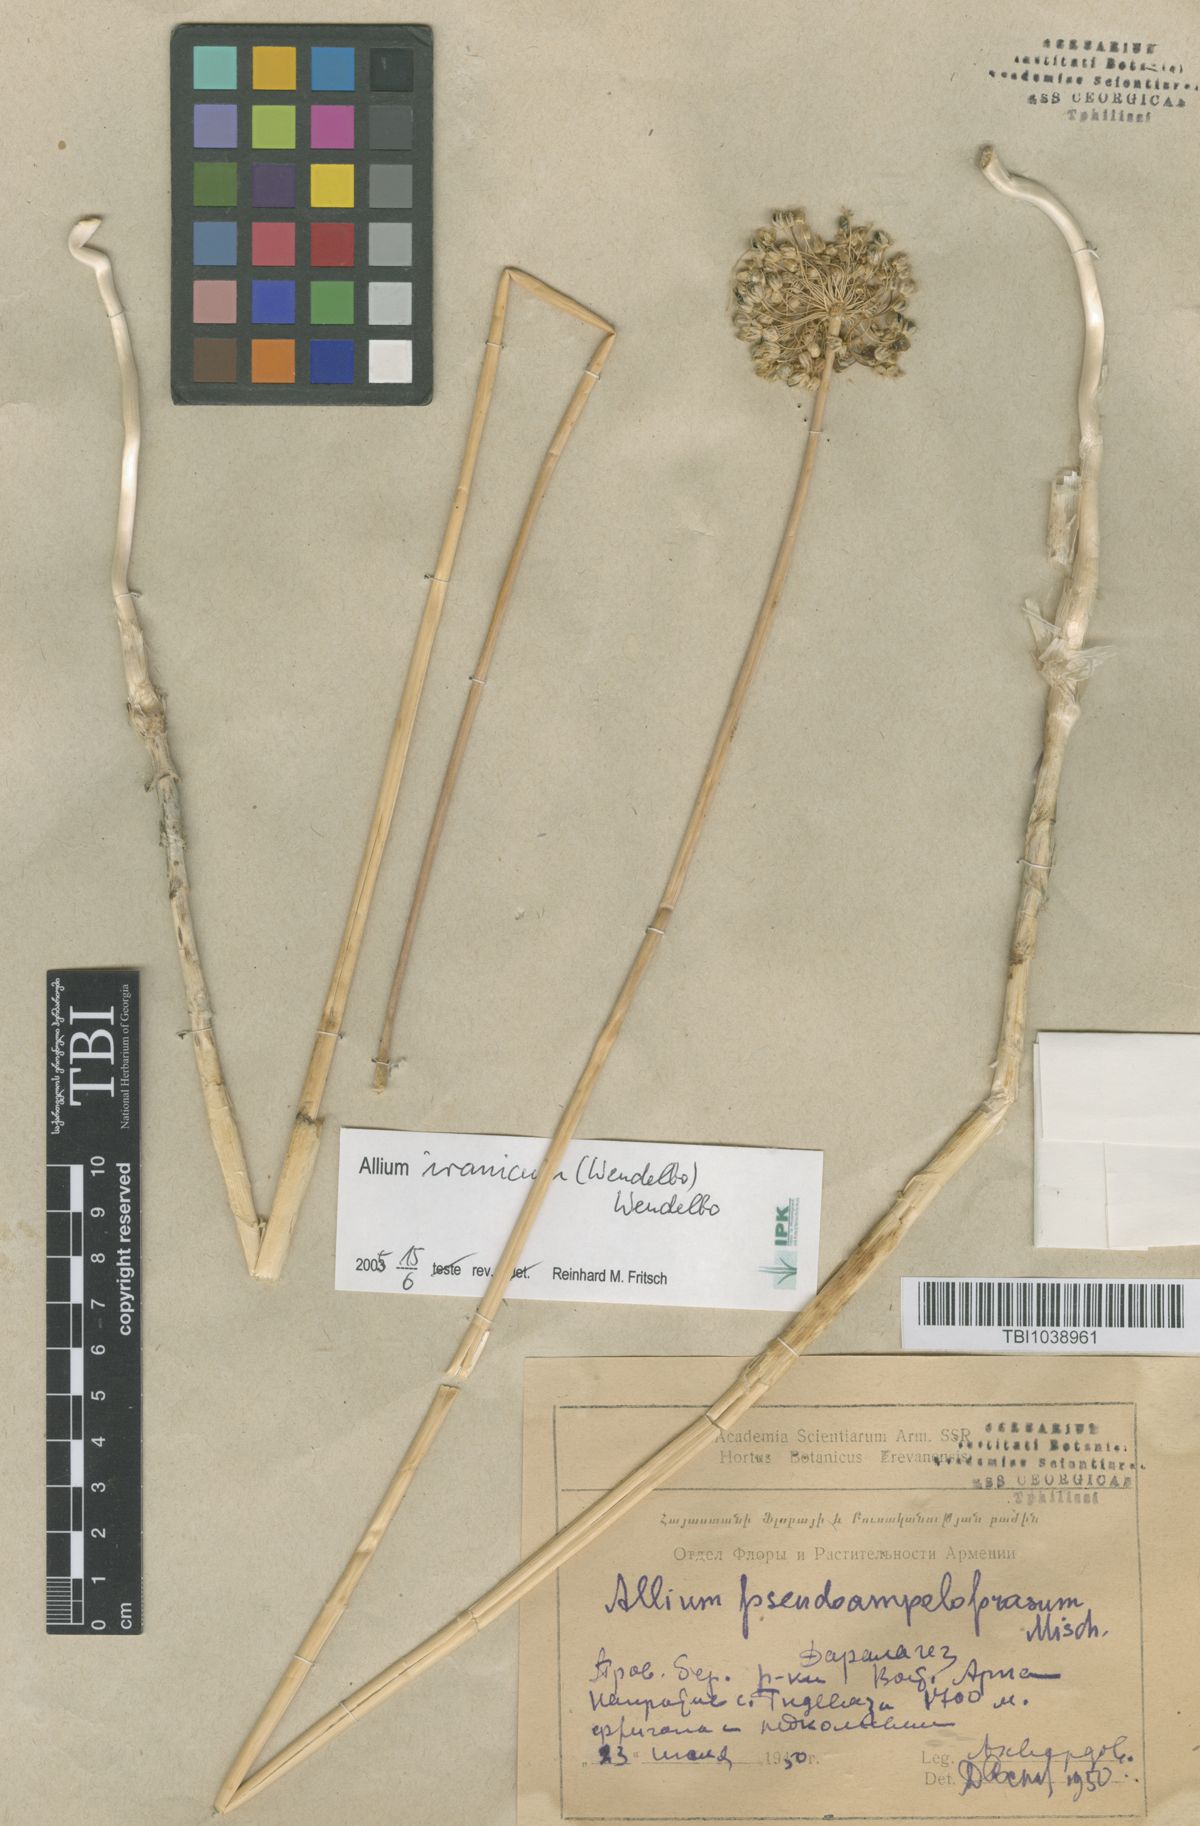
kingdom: Plantae
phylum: Tracheophyta
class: Liliopsida
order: Asparagales
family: Amaryllidaceae
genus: Allium
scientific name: Allium pseudoampeloprasum
